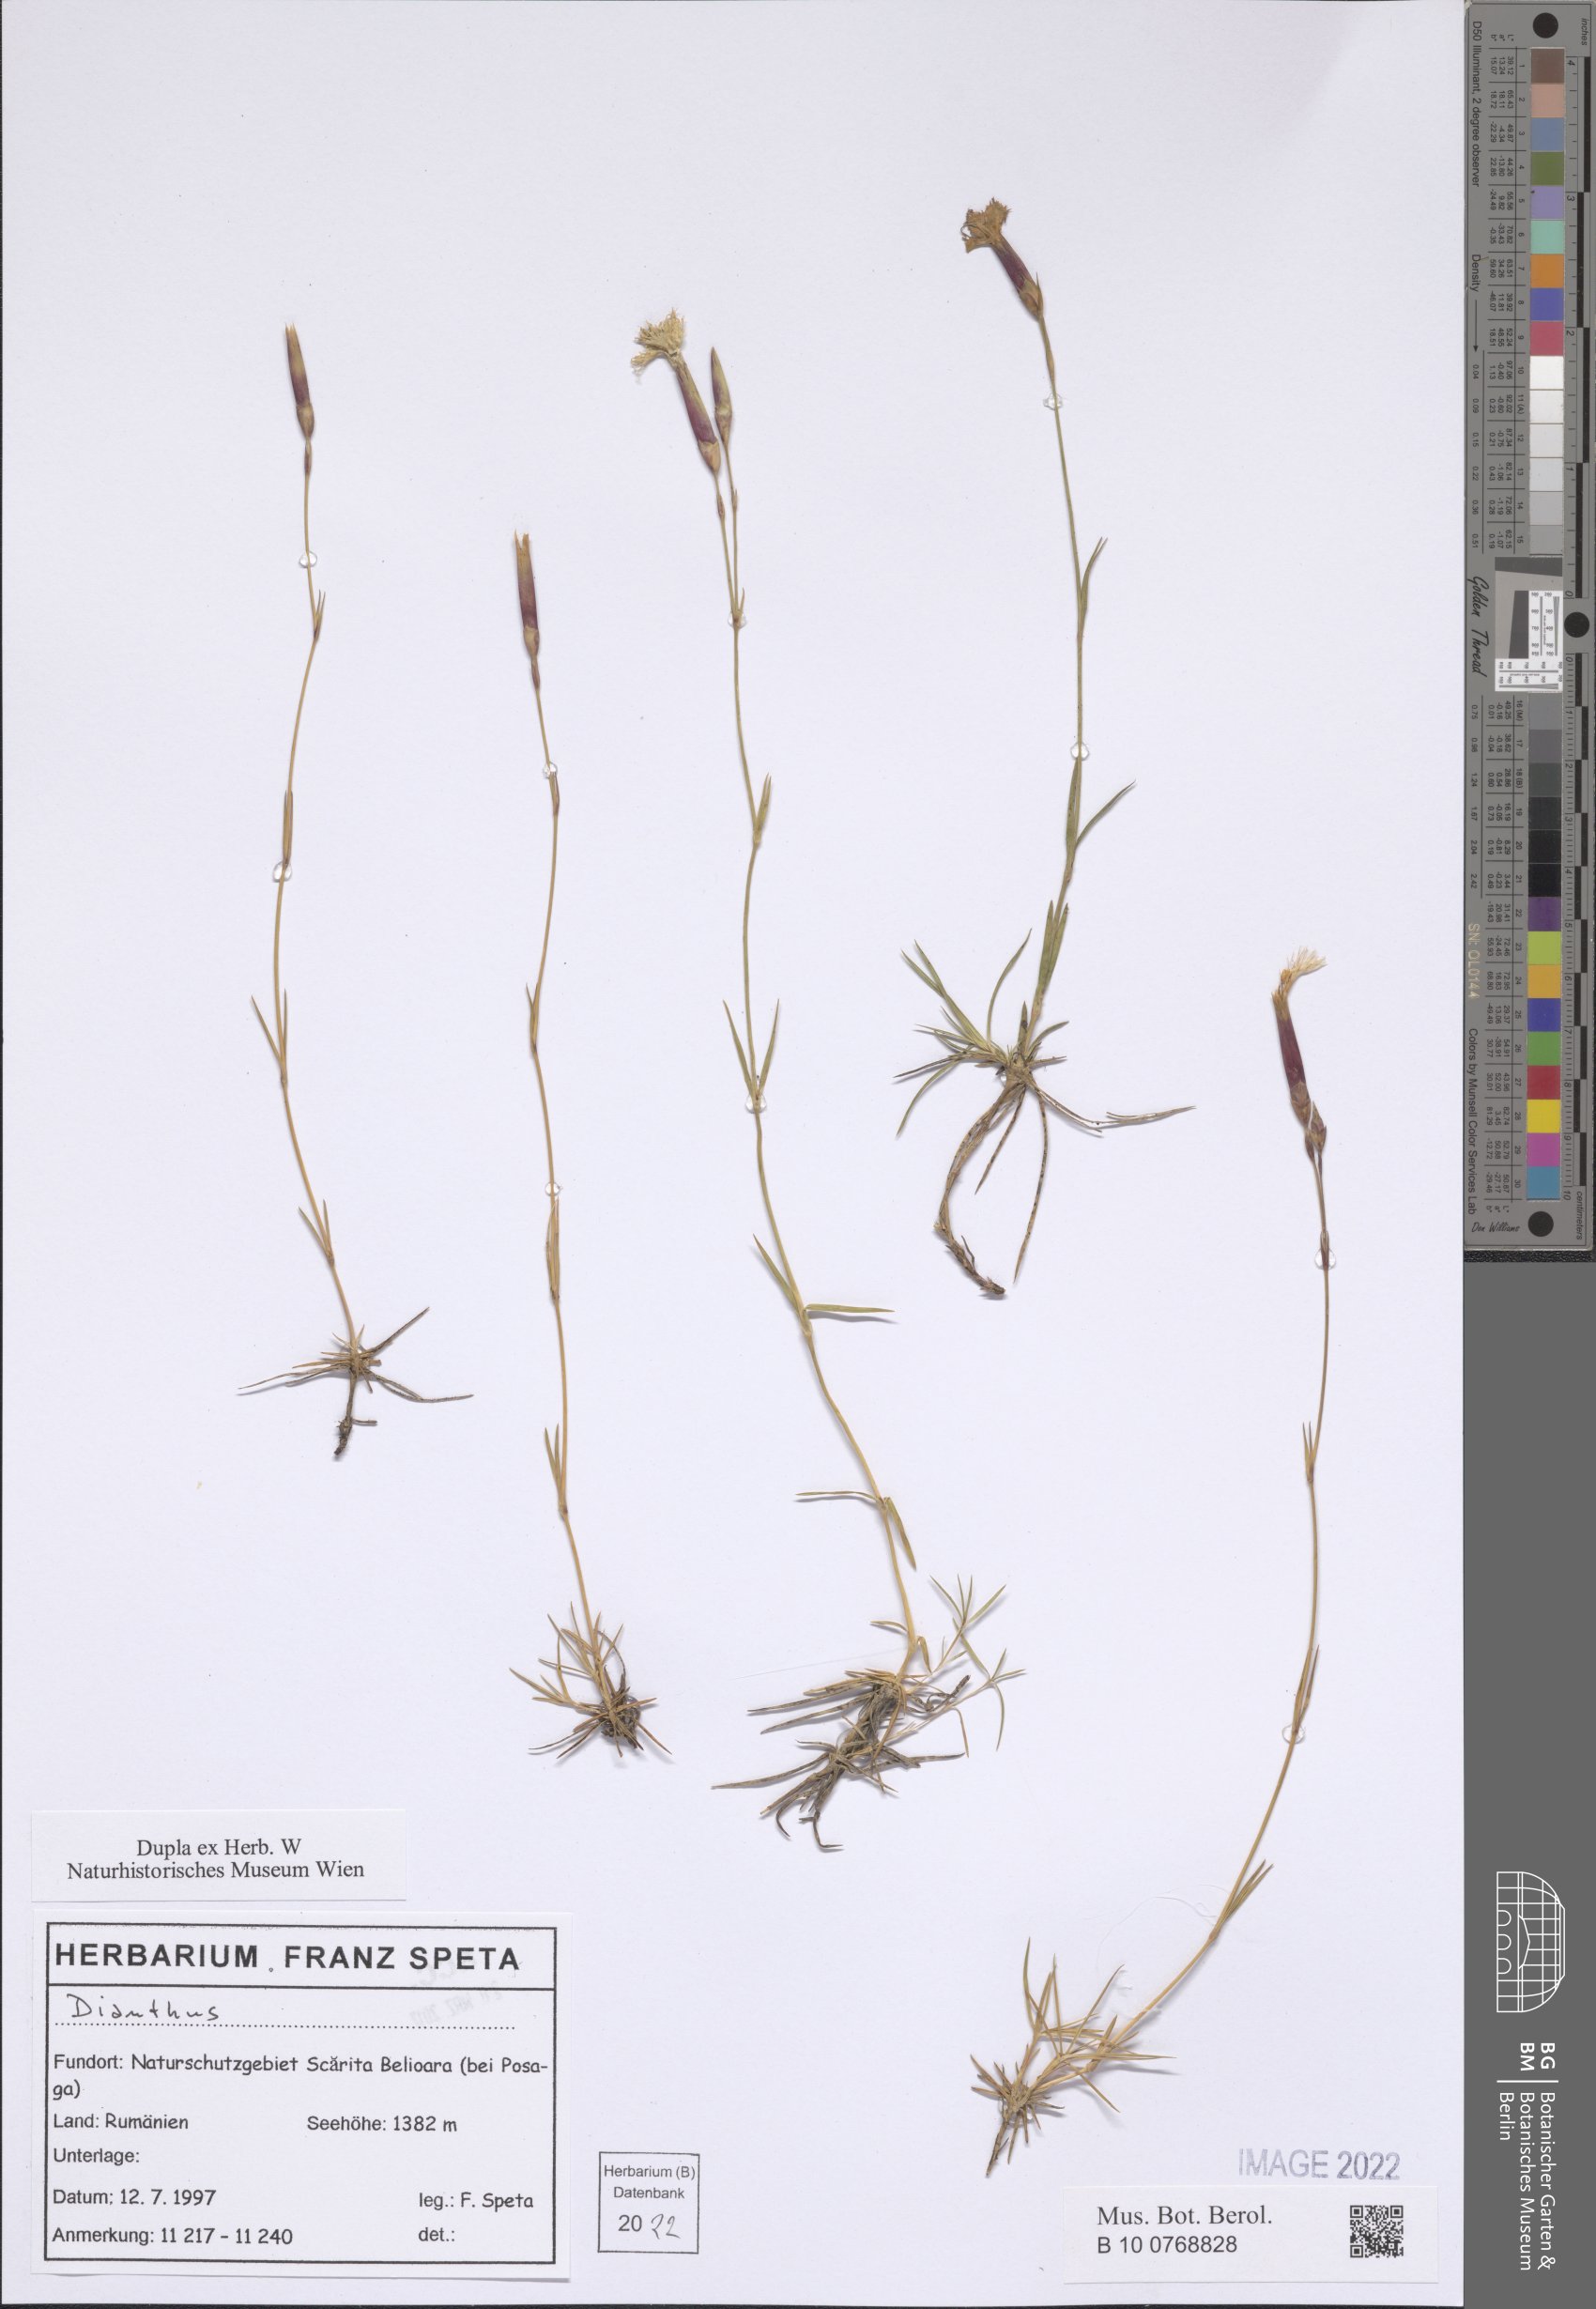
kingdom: Plantae
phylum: Tracheophyta
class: Magnoliopsida
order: Caryophyllales
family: Caryophyllaceae
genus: Dianthus
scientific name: Dianthus
